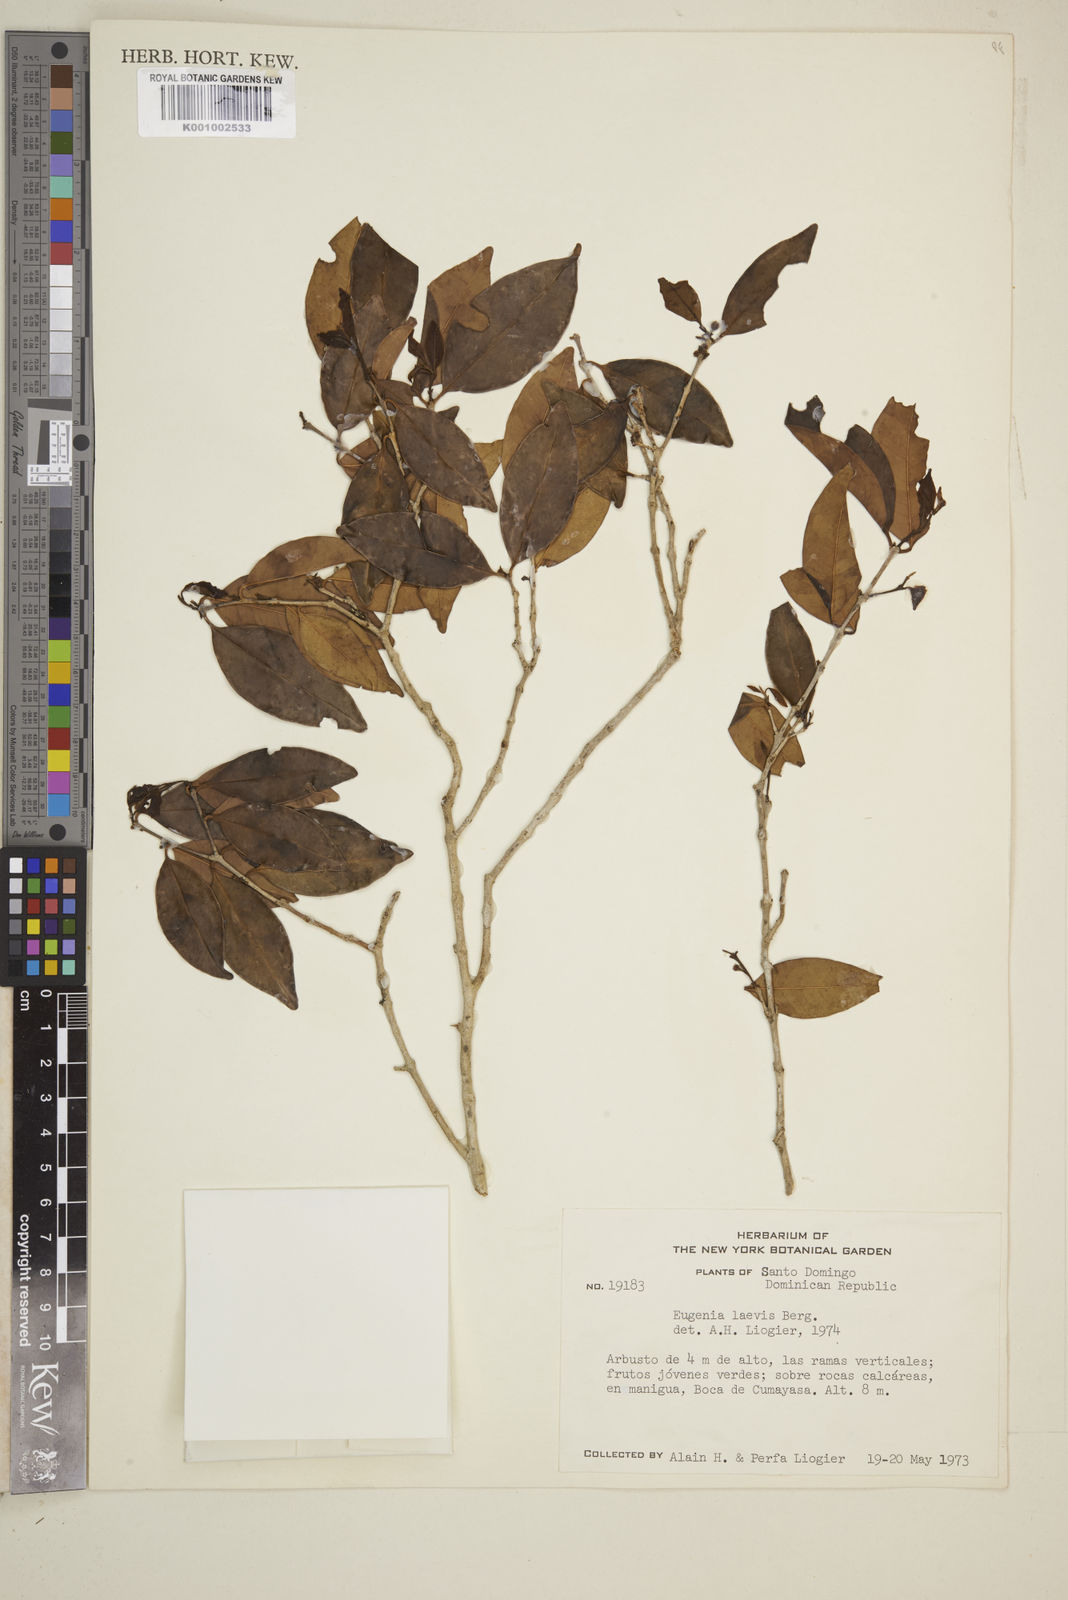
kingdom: Plantae
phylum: Tracheophyta
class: Magnoliopsida
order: Myrtales
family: Myrtaceae
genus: Eugenia
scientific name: Eugenia laevis
